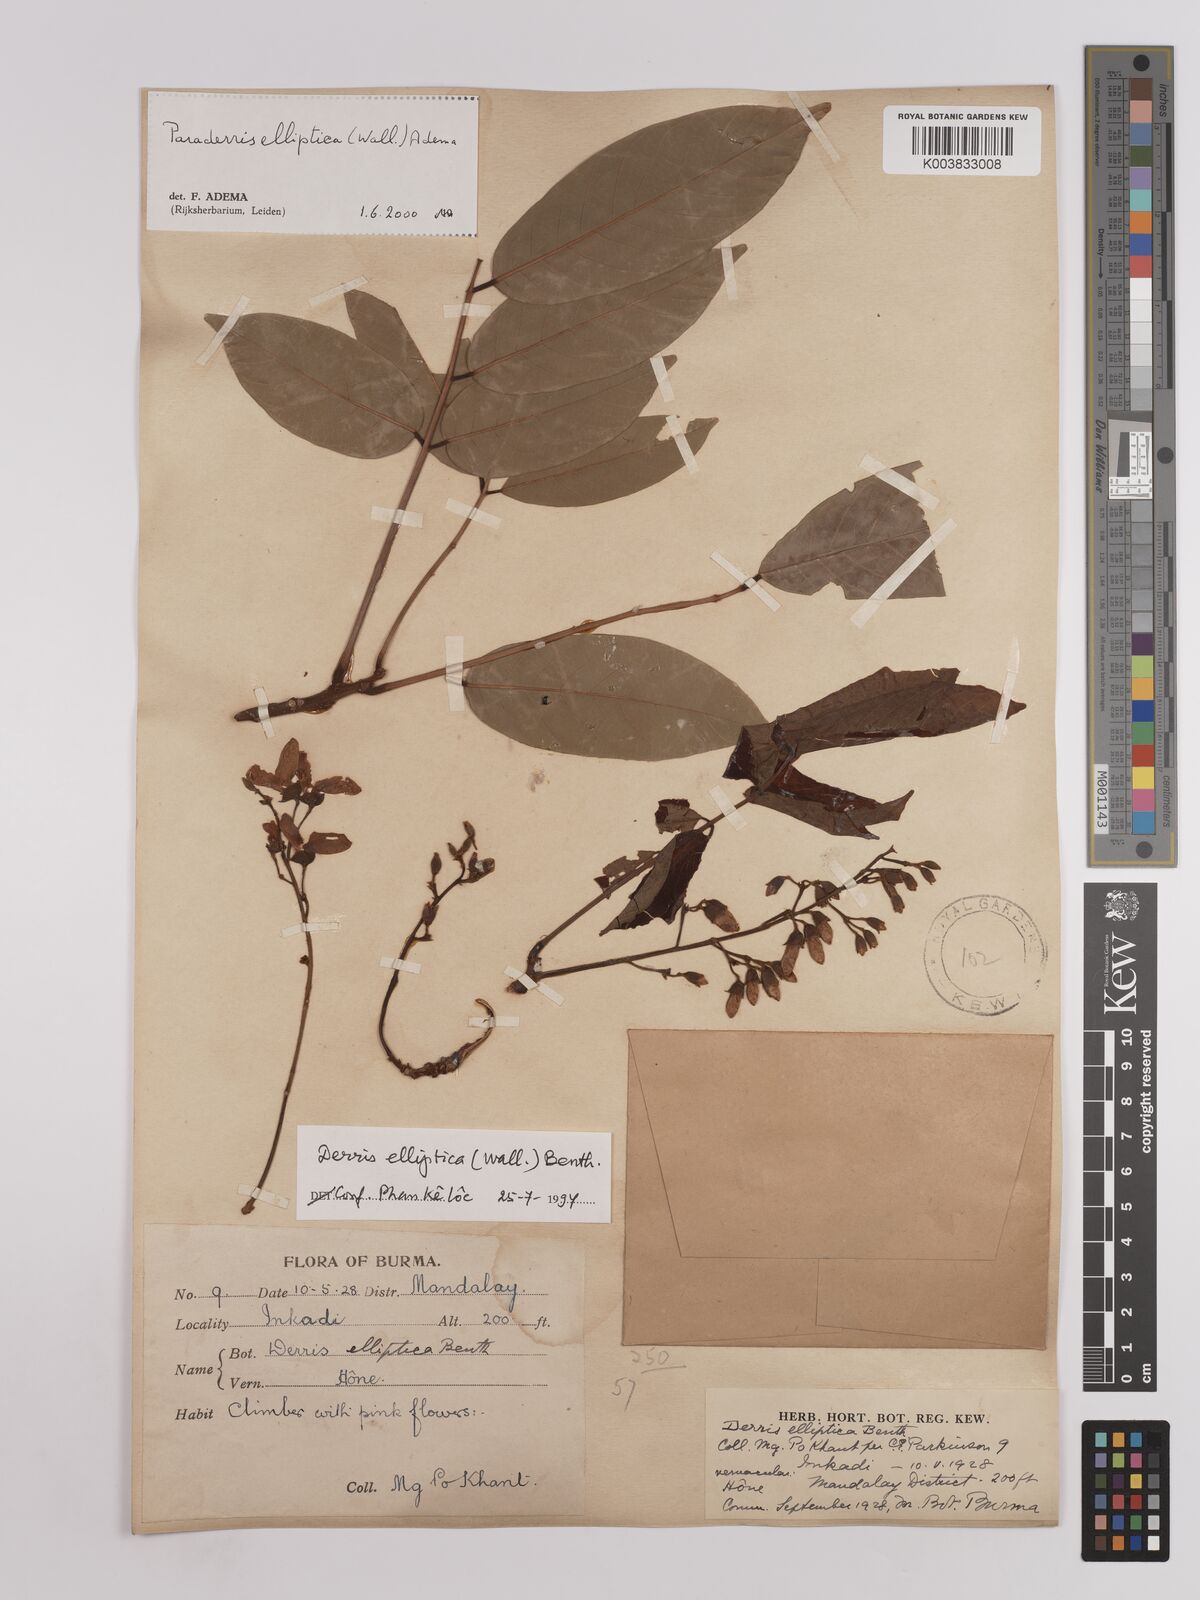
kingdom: Plantae
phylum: Tracheophyta
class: Magnoliopsida
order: Fabales
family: Fabaceae
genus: Derris
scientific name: Derris elliptica
